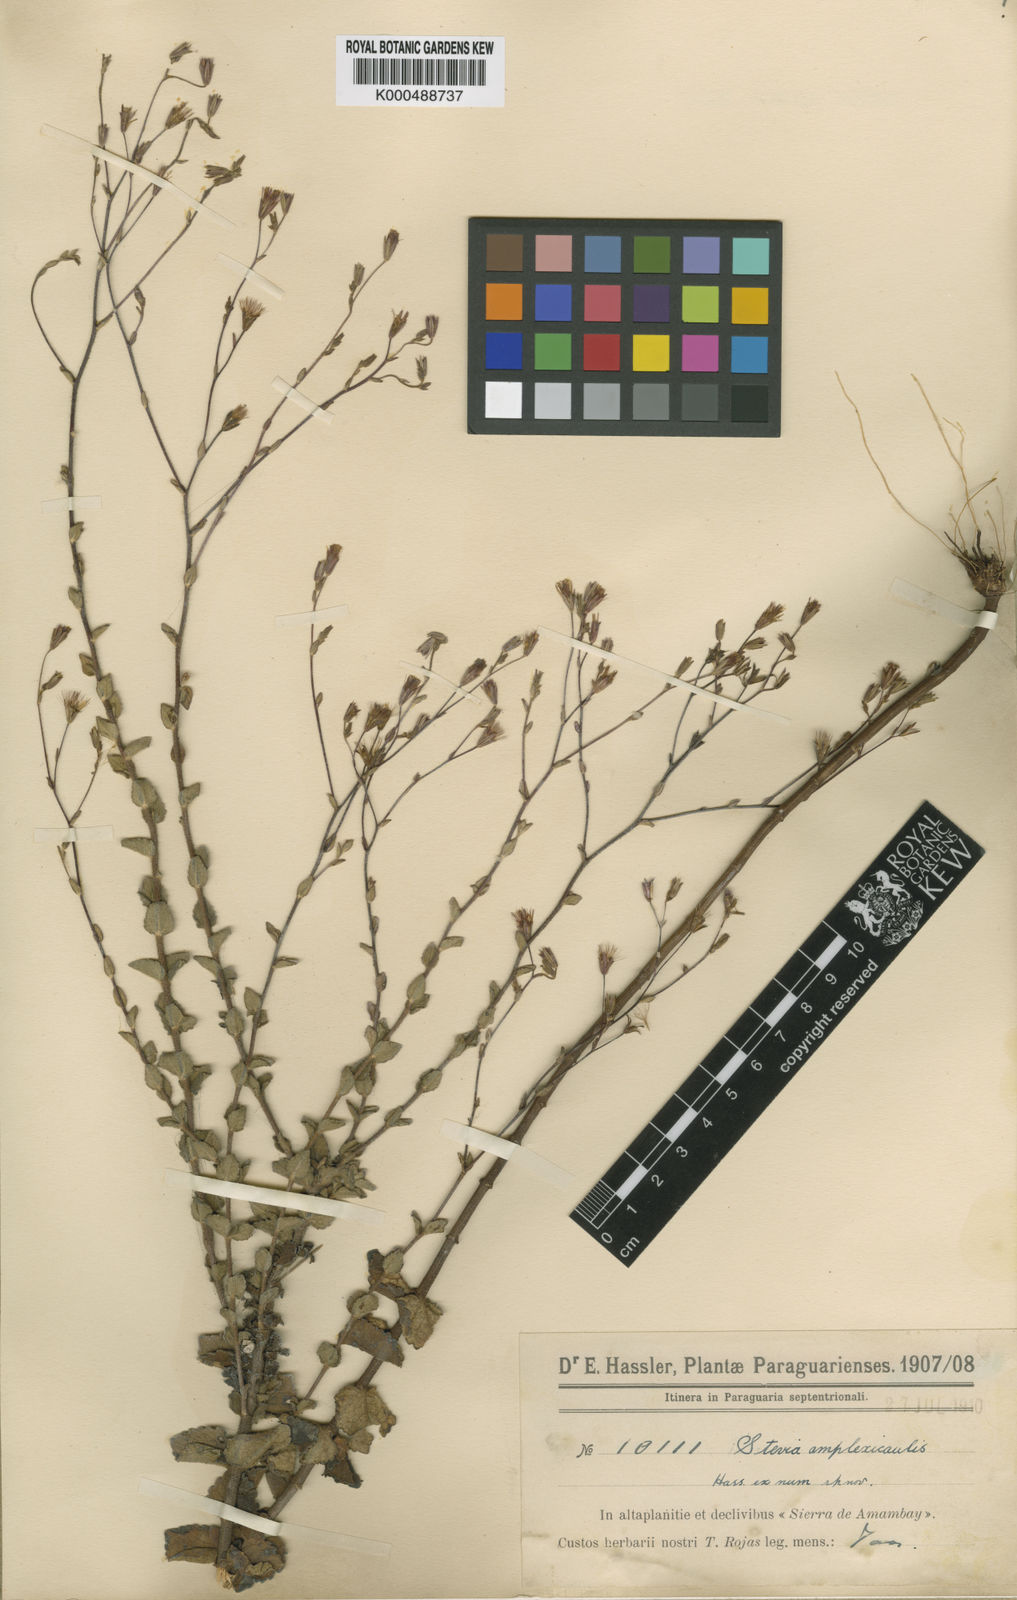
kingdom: Plantae
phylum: Tracheophyta
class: Magnoliopsida
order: Asterales
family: Asteraceae
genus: Stevia
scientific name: Stevia amplexicaulis
